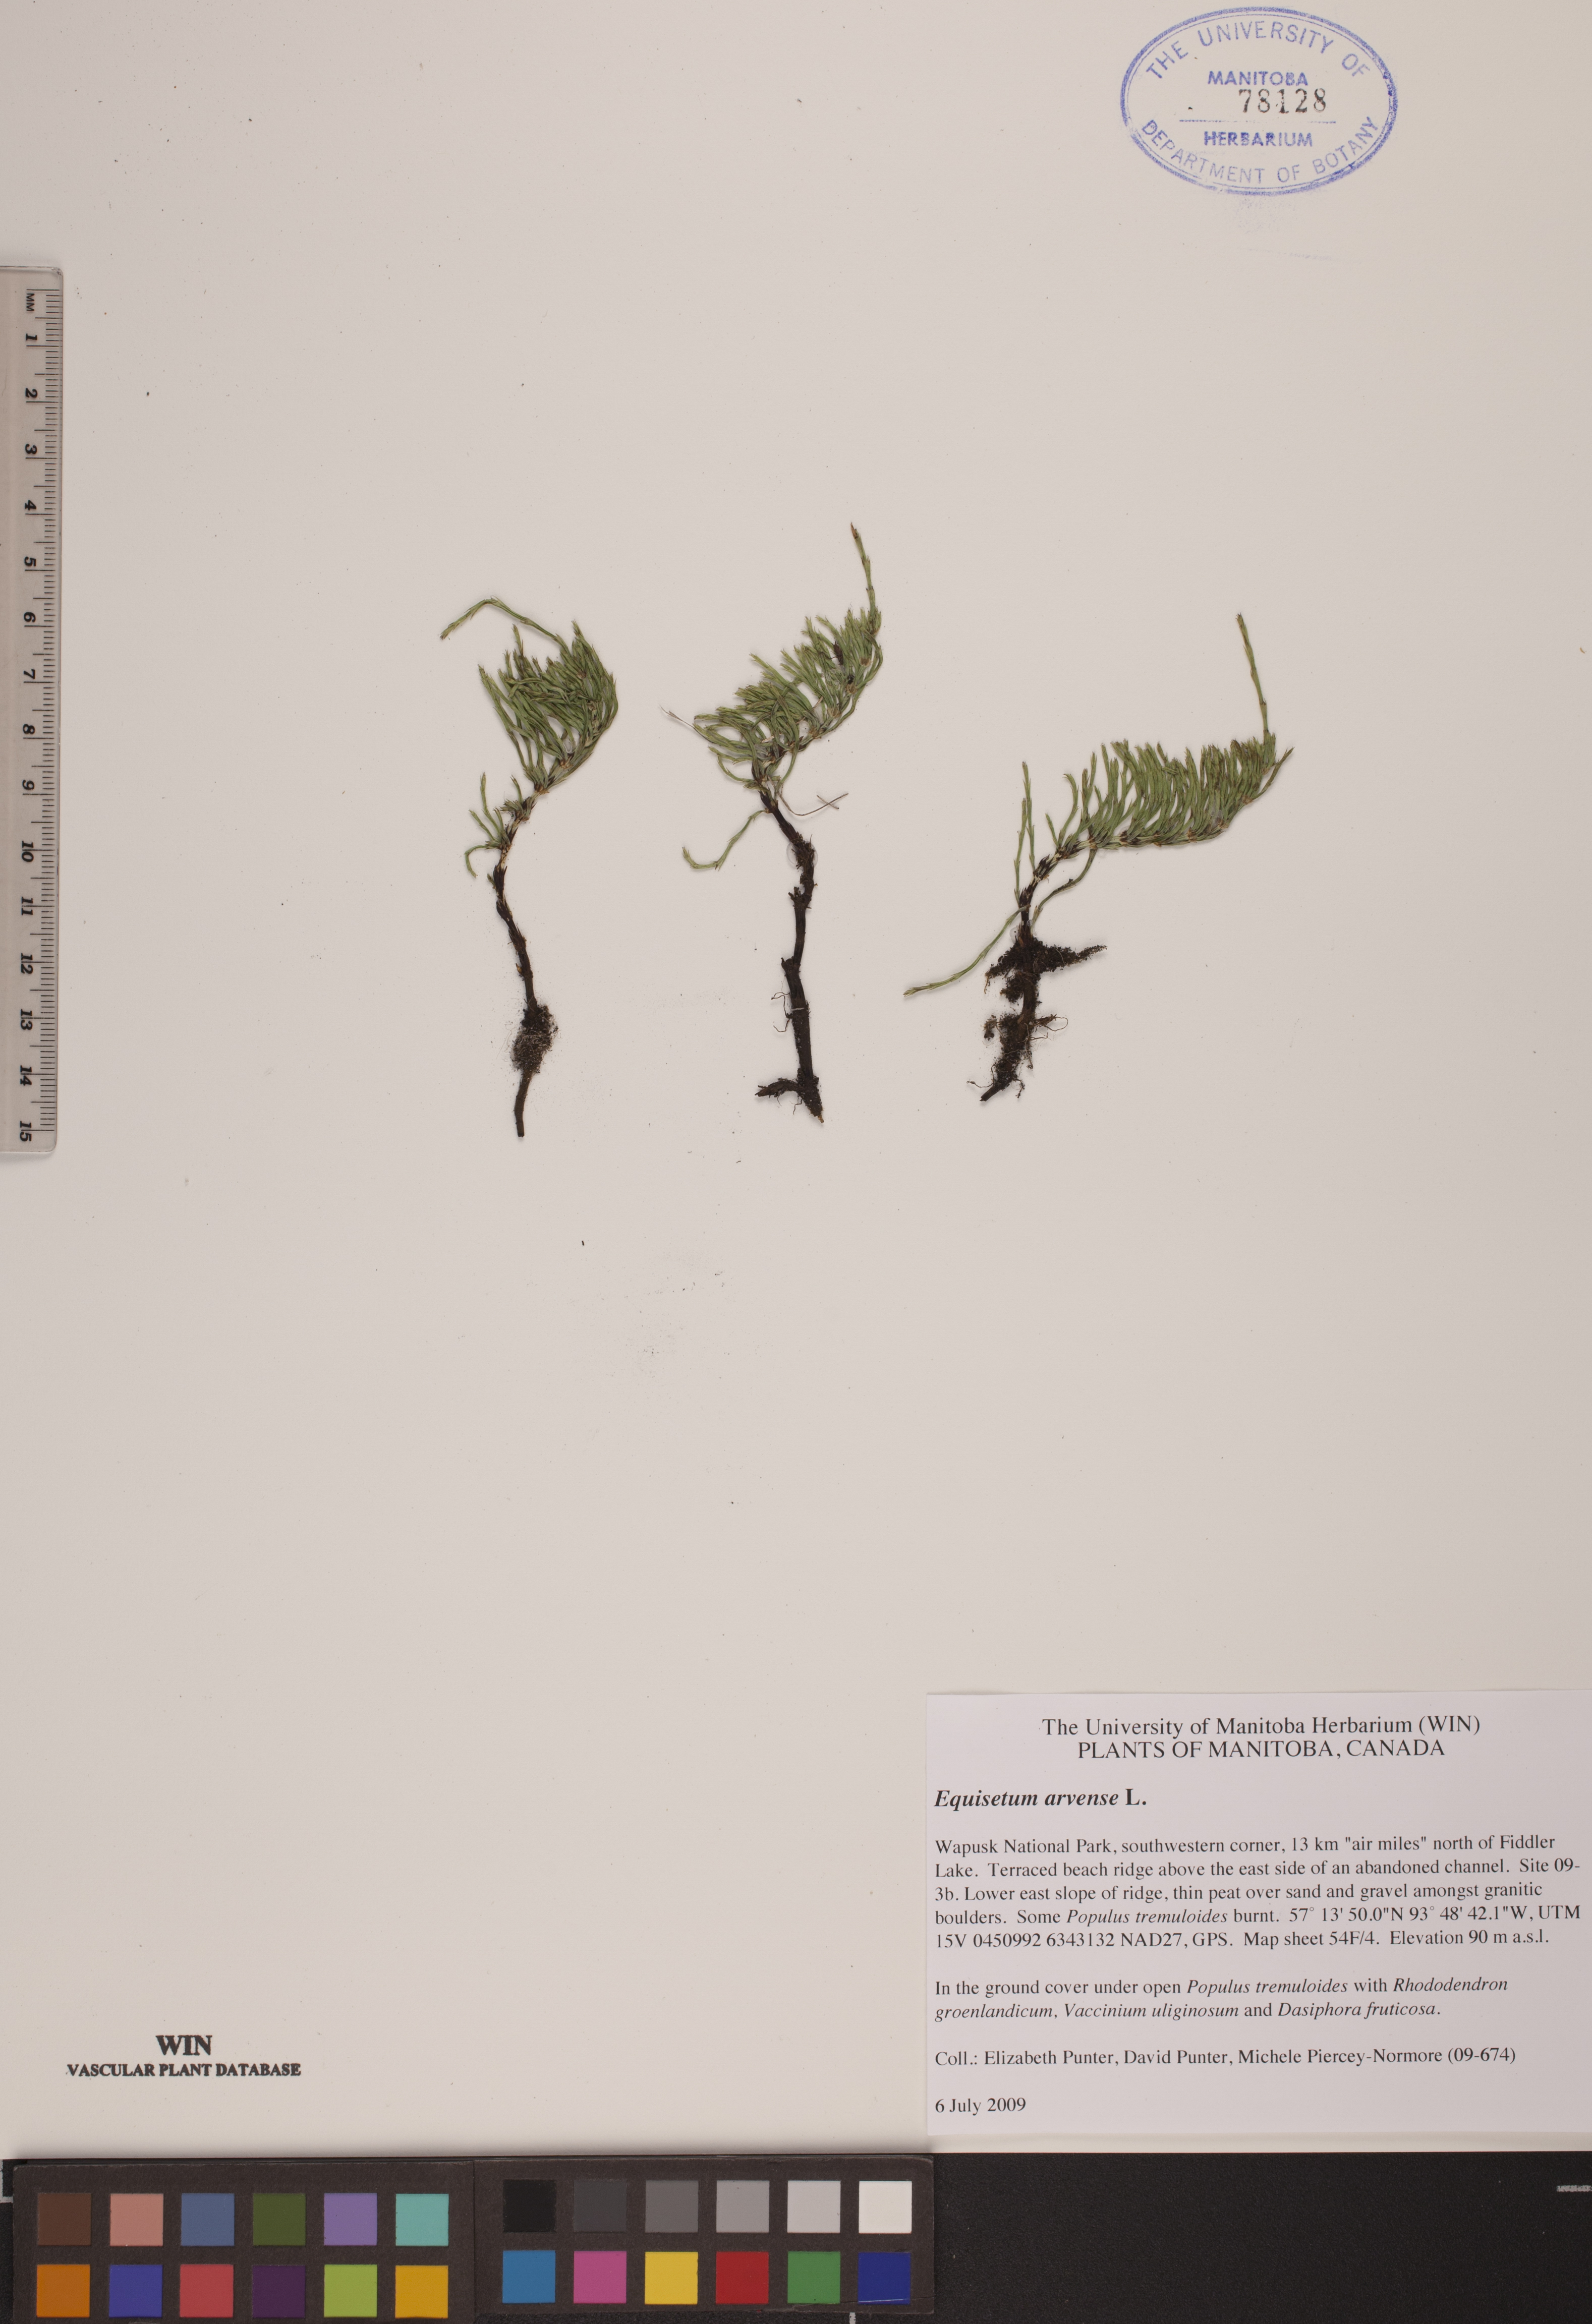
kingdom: Plantae
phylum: Tracheophyta
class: Polypodiopsida
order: Equisetales
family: Equisetaceae
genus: Equisetum
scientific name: Equisetum arvense
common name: Field horsetail
